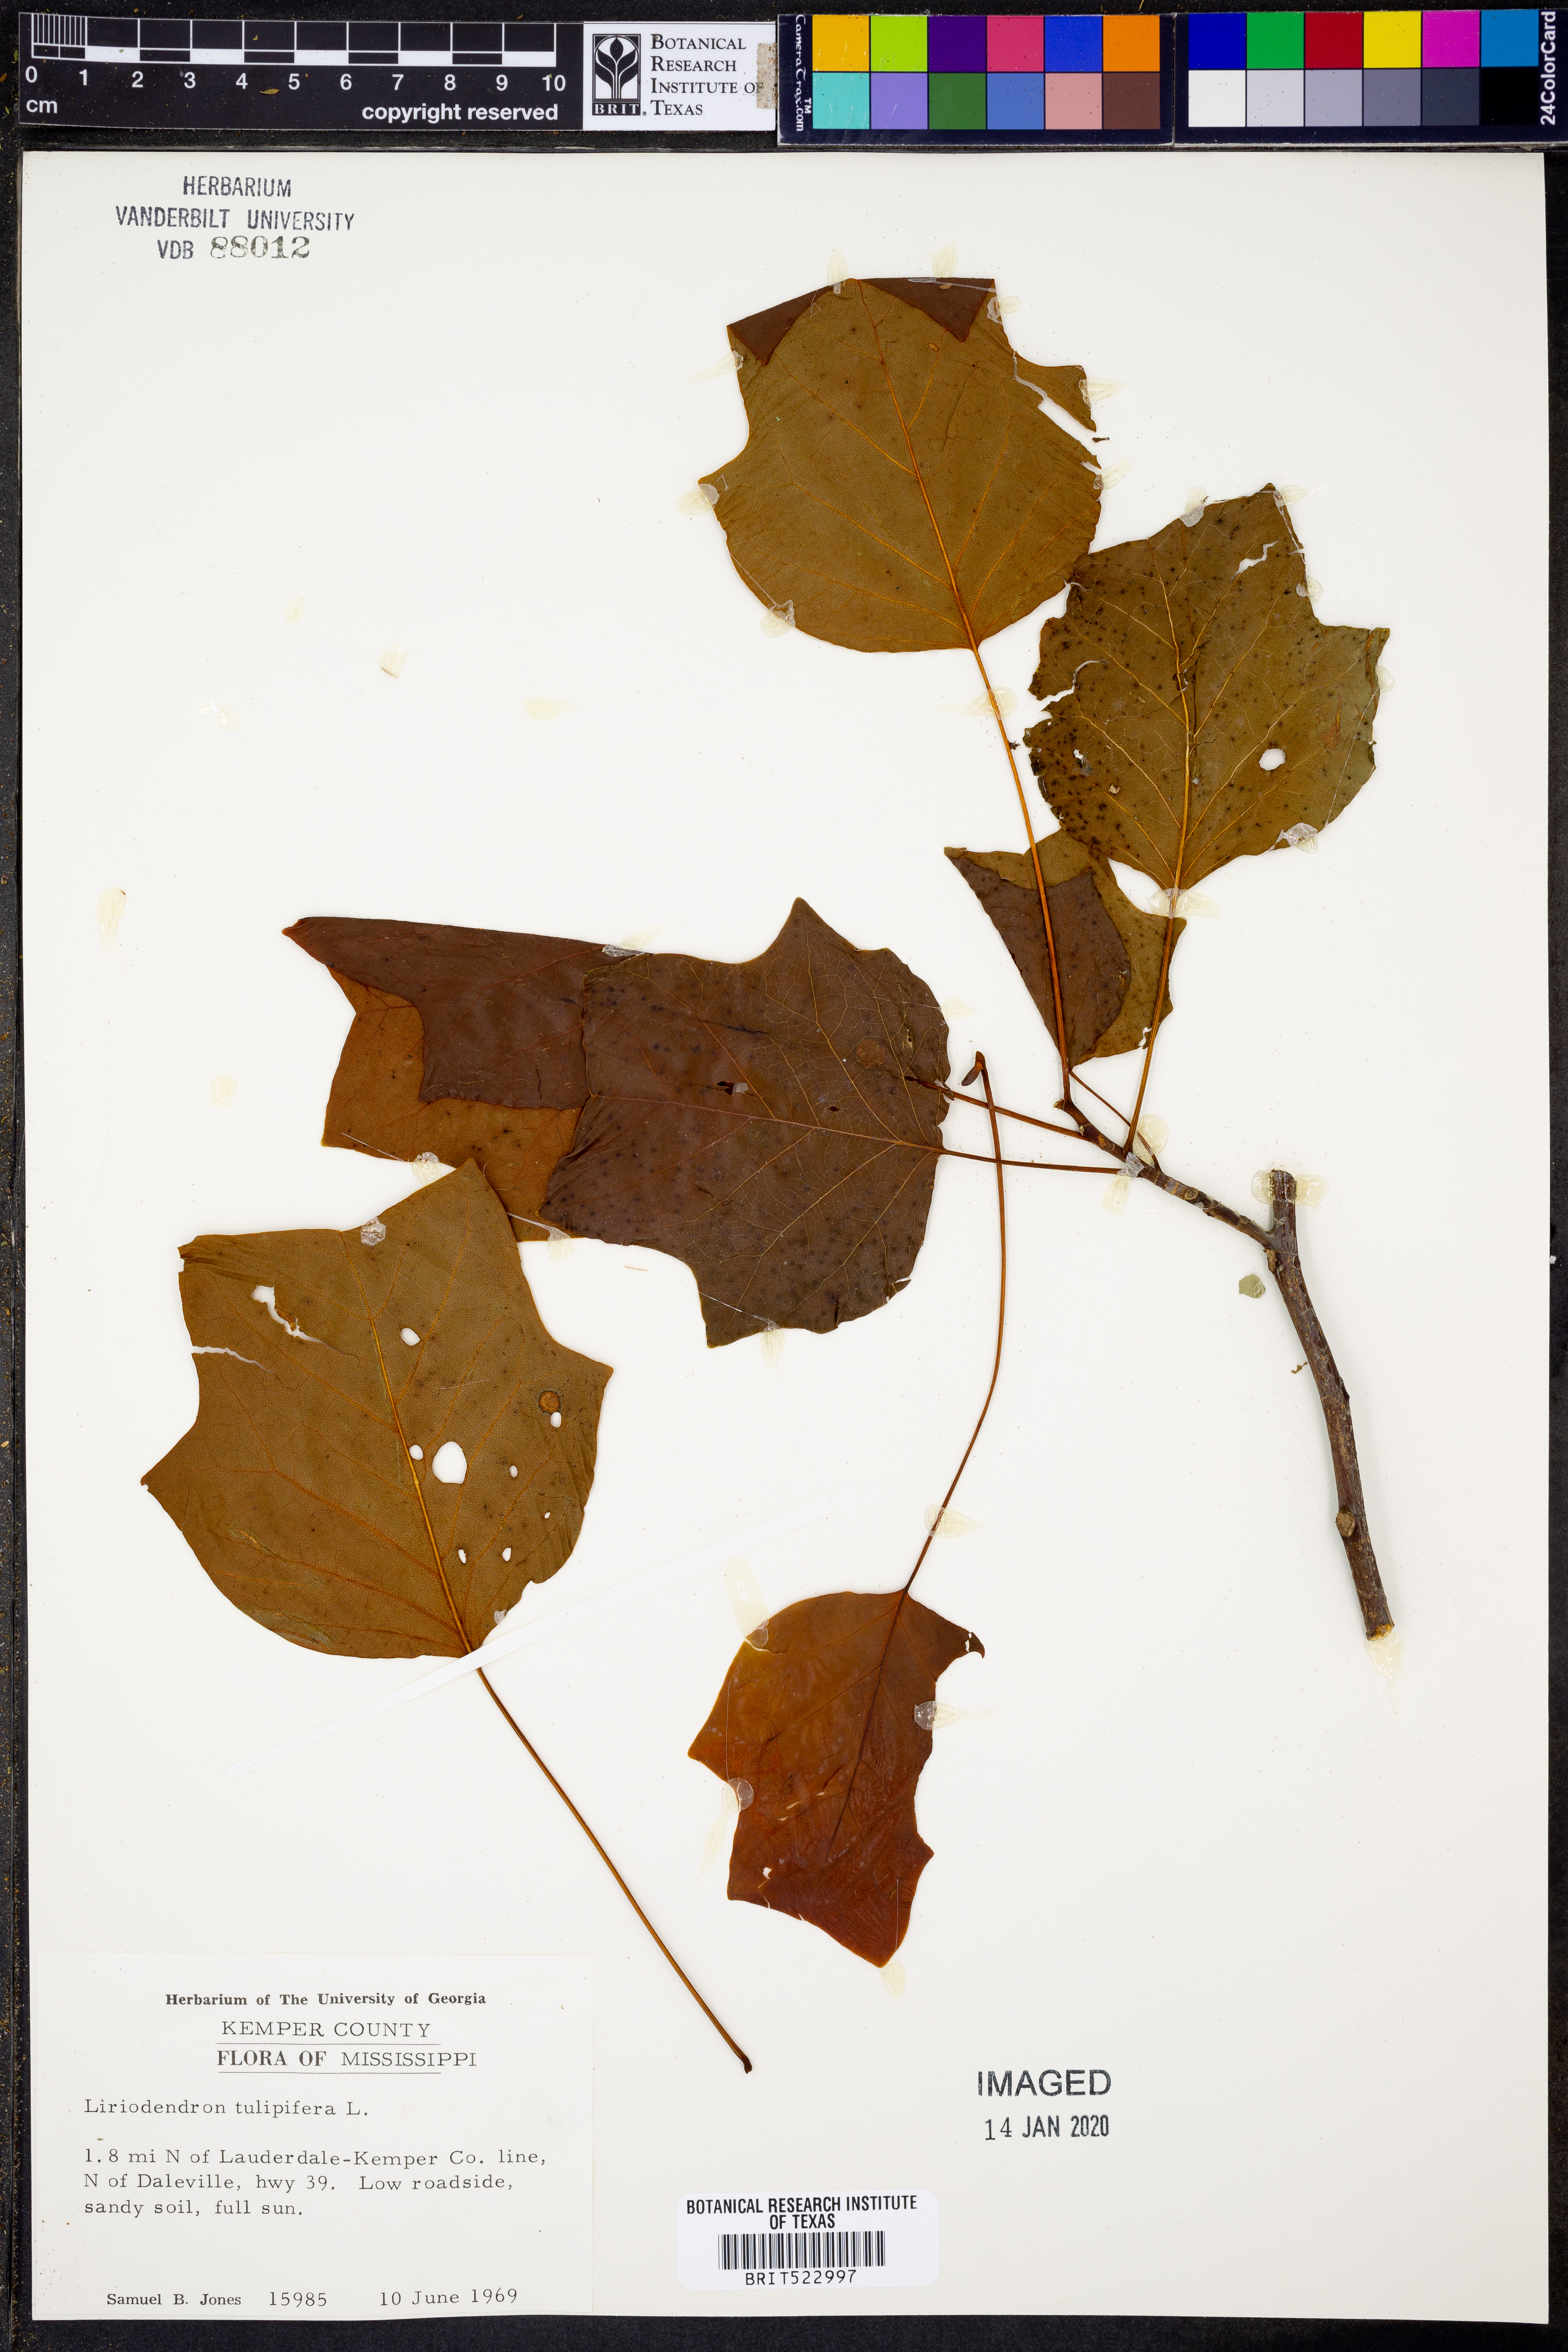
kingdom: Plantae
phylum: Tracheophyta
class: Magnoliopsida
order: Magnoliales
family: Magnoliaceae
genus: Liriodendron
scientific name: Liriodendron tulipifera
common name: Tulip tree
